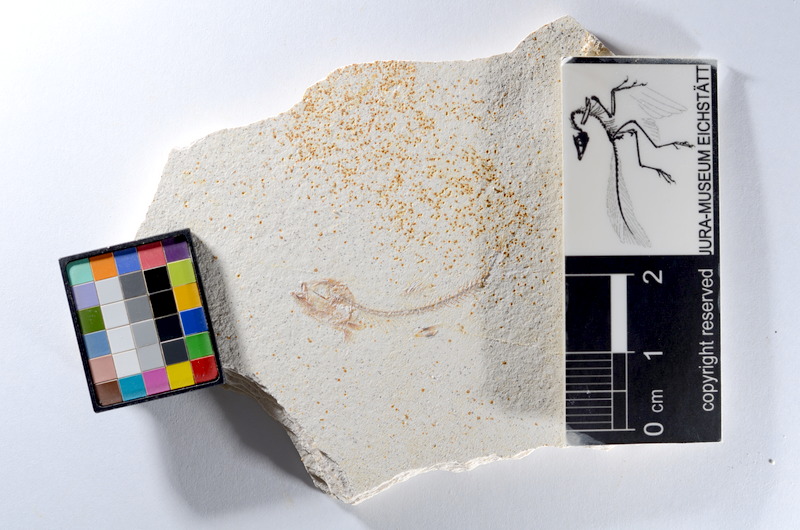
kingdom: Animalia
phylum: Chordata
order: Salmoniformes
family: Orthogonikleithridae
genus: Orthogonikleithrus
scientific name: Orthogonikleithrus hoelli
